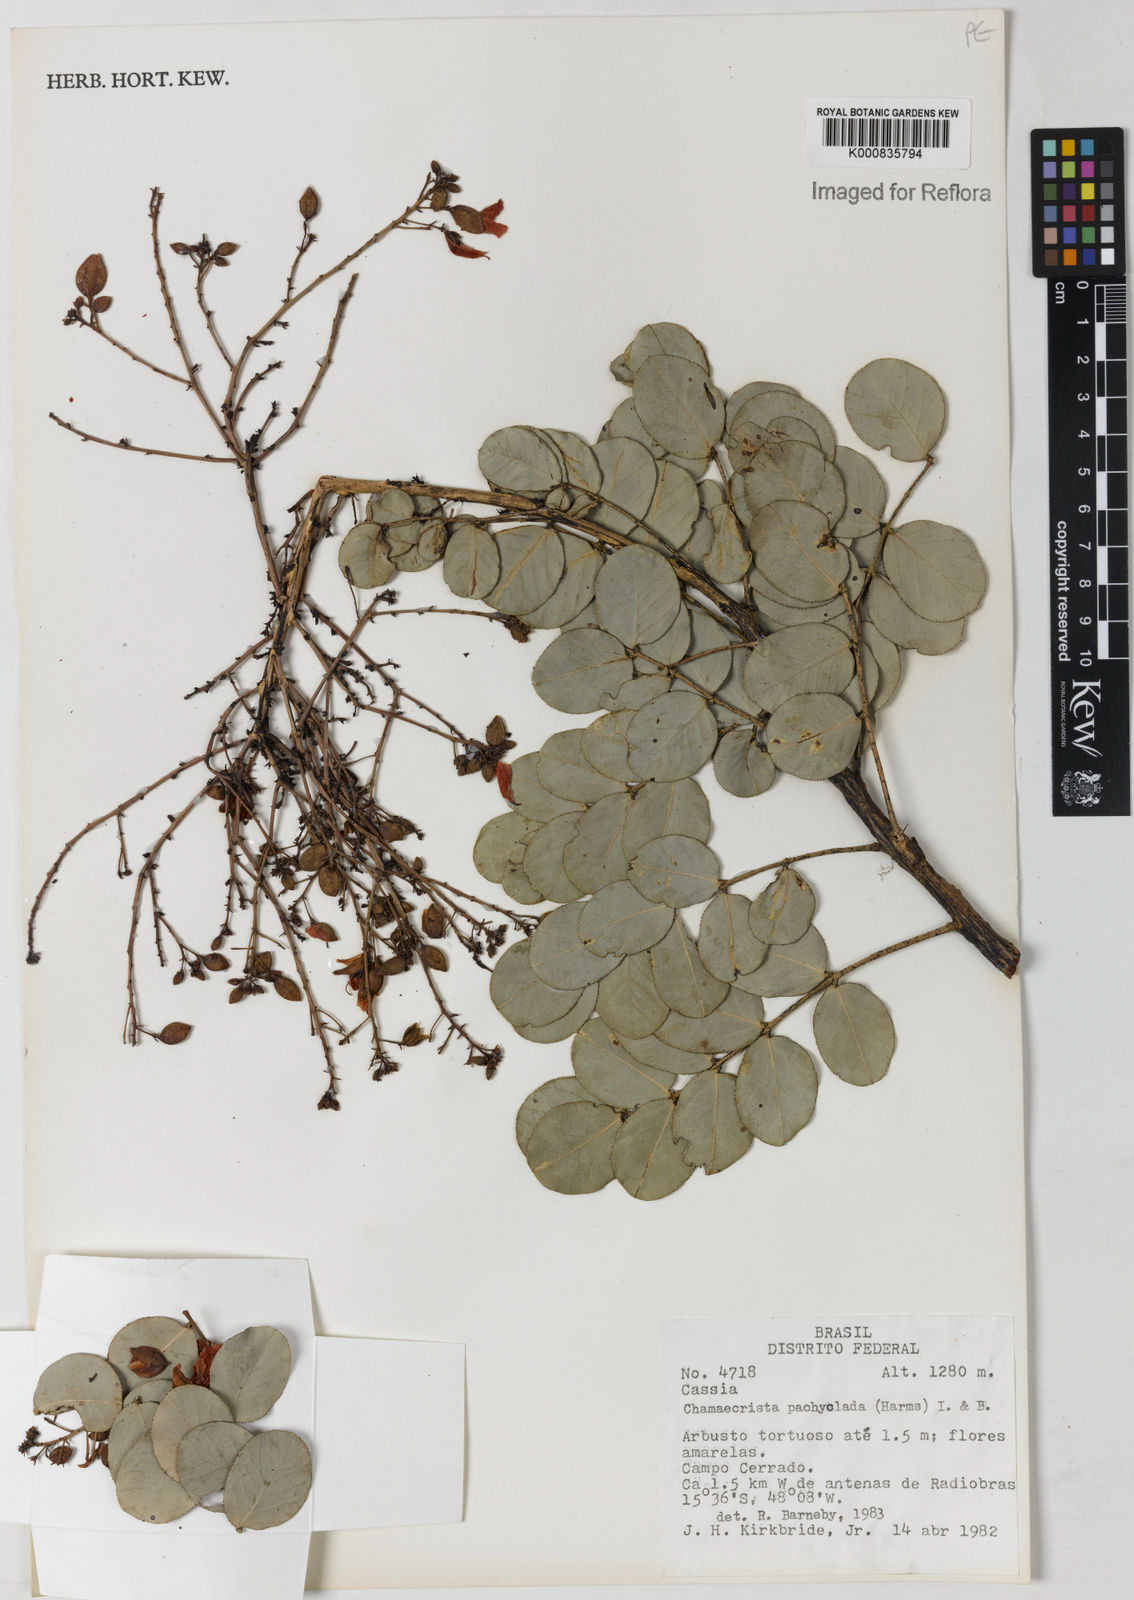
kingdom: Plantae
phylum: Tracheophyta
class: Magnoliopsida
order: Fabales
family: Fabaceae
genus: Chamaecrista
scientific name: Chamaecrista
